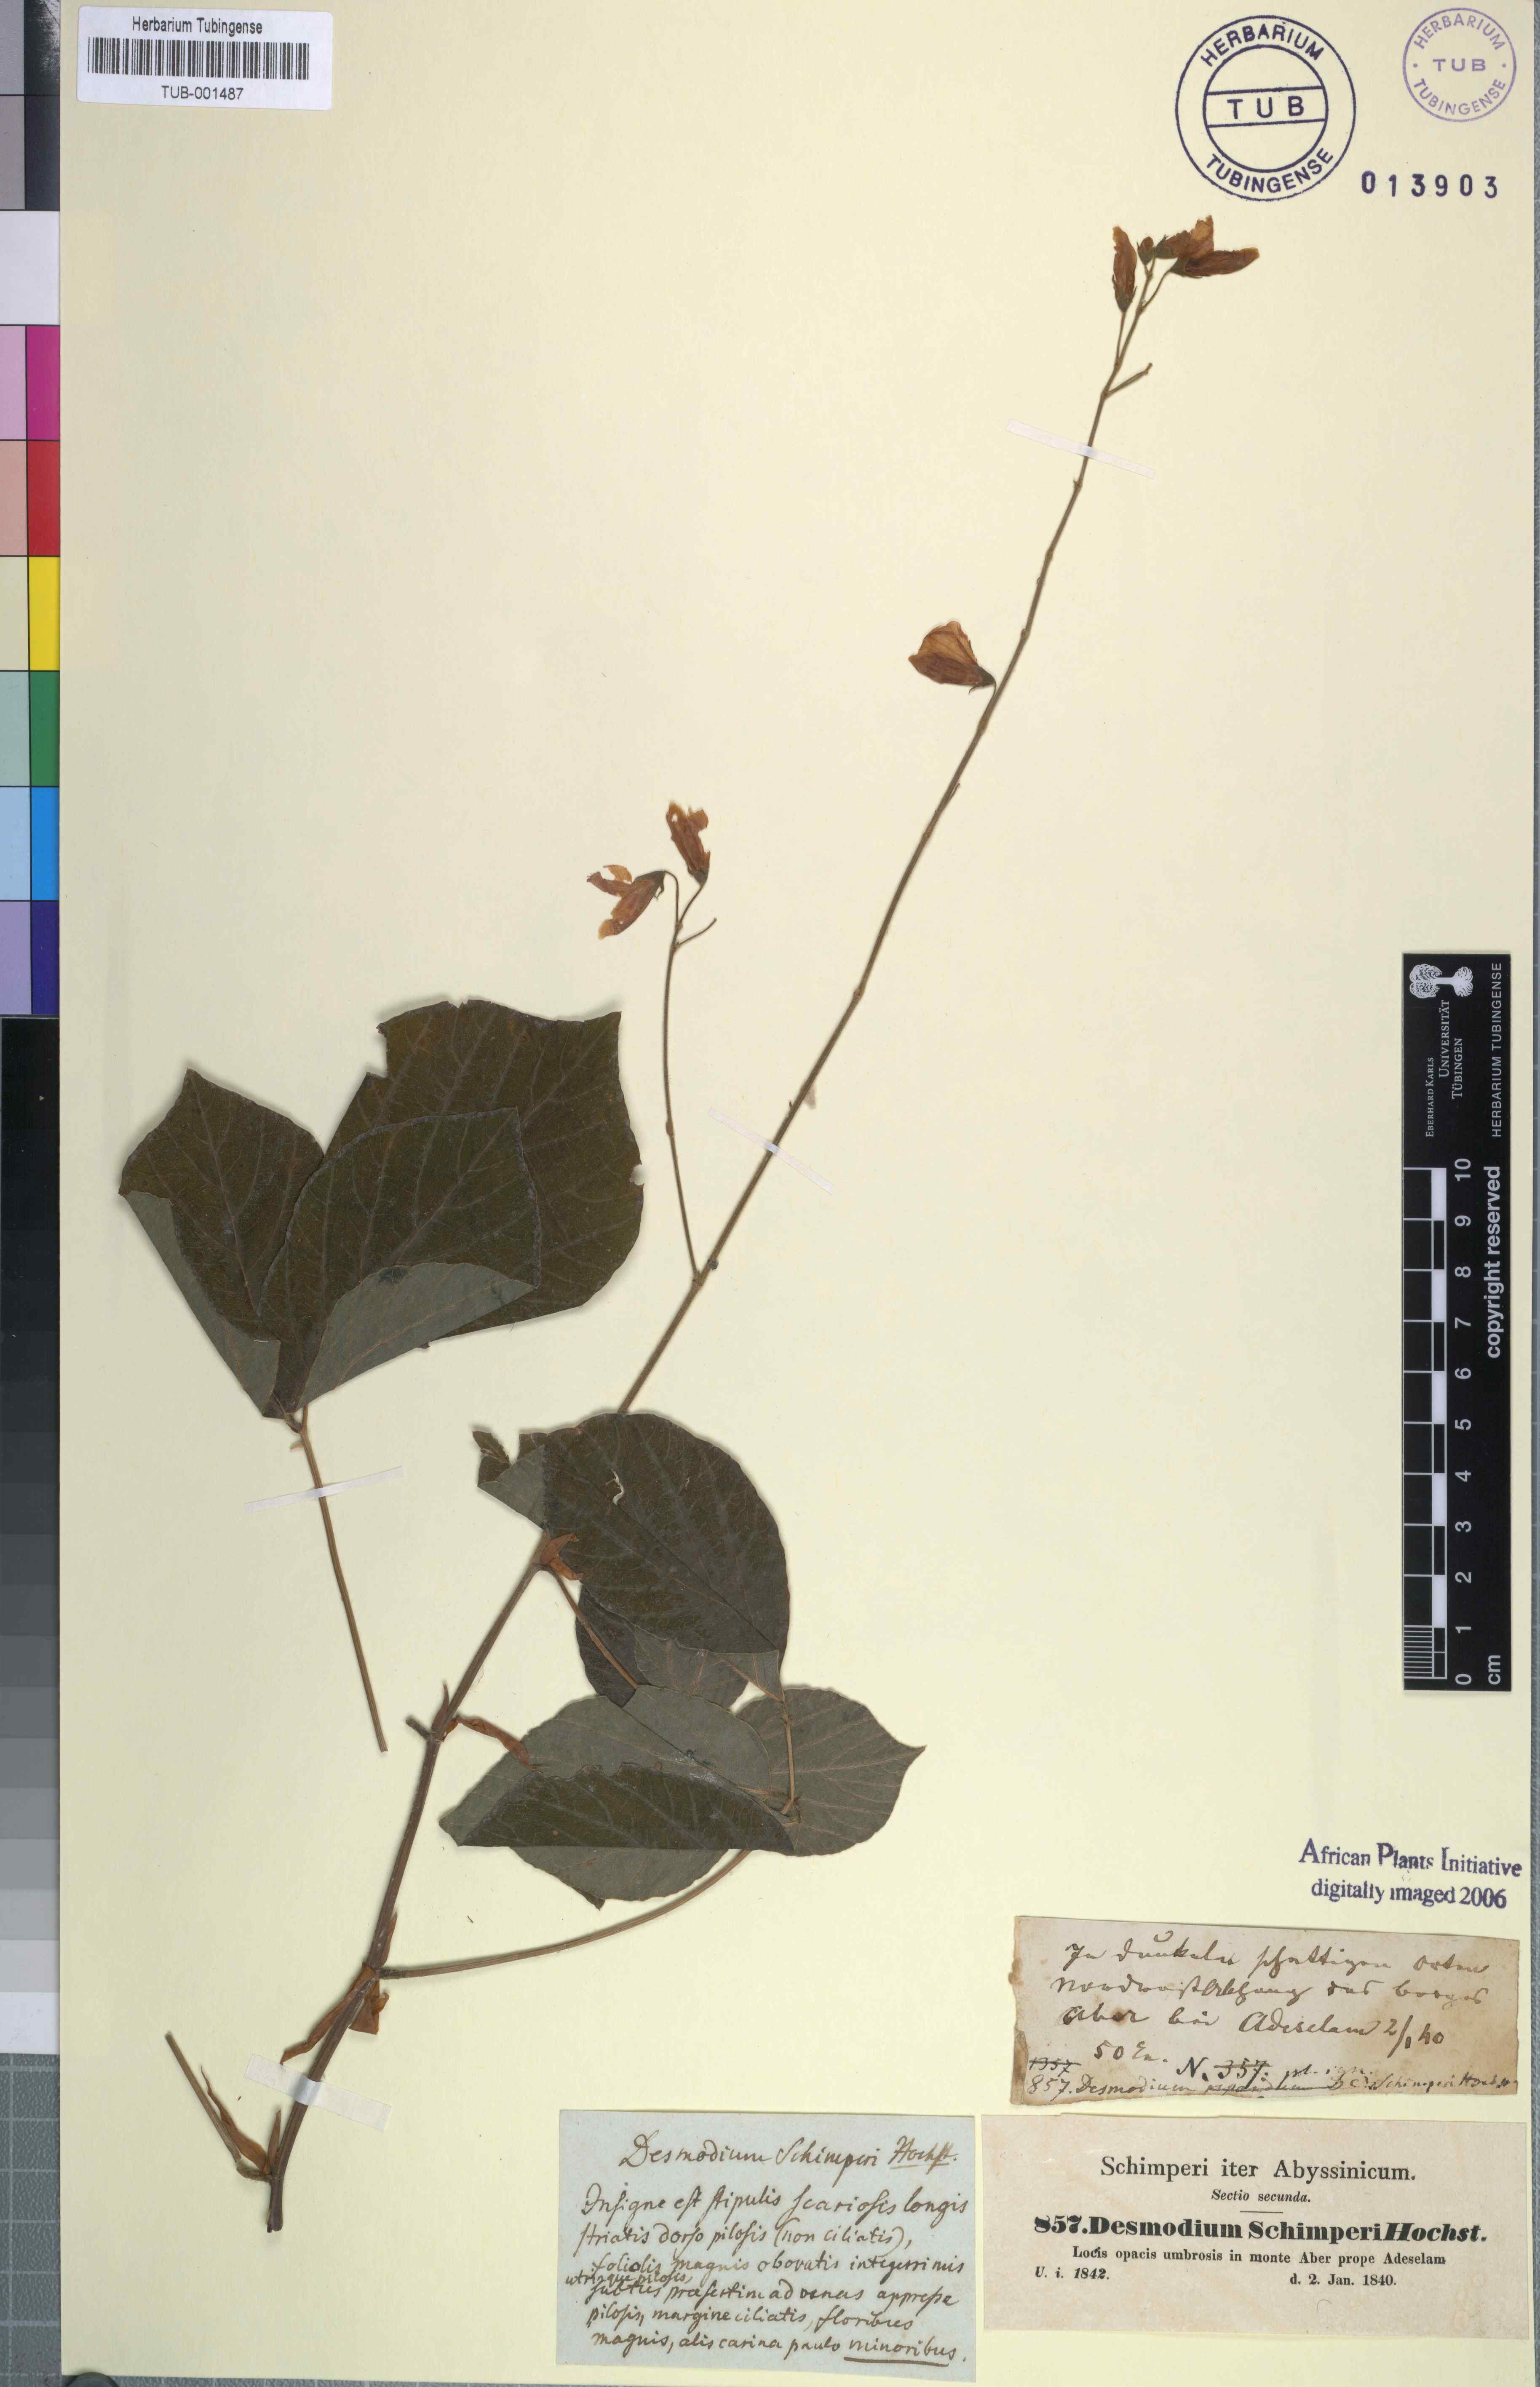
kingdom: Plantae
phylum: Tracheophyta
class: Magnoliopsida
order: Fabales
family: Fabaceae
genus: Hylodesmum
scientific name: Hylodesmum repandum
